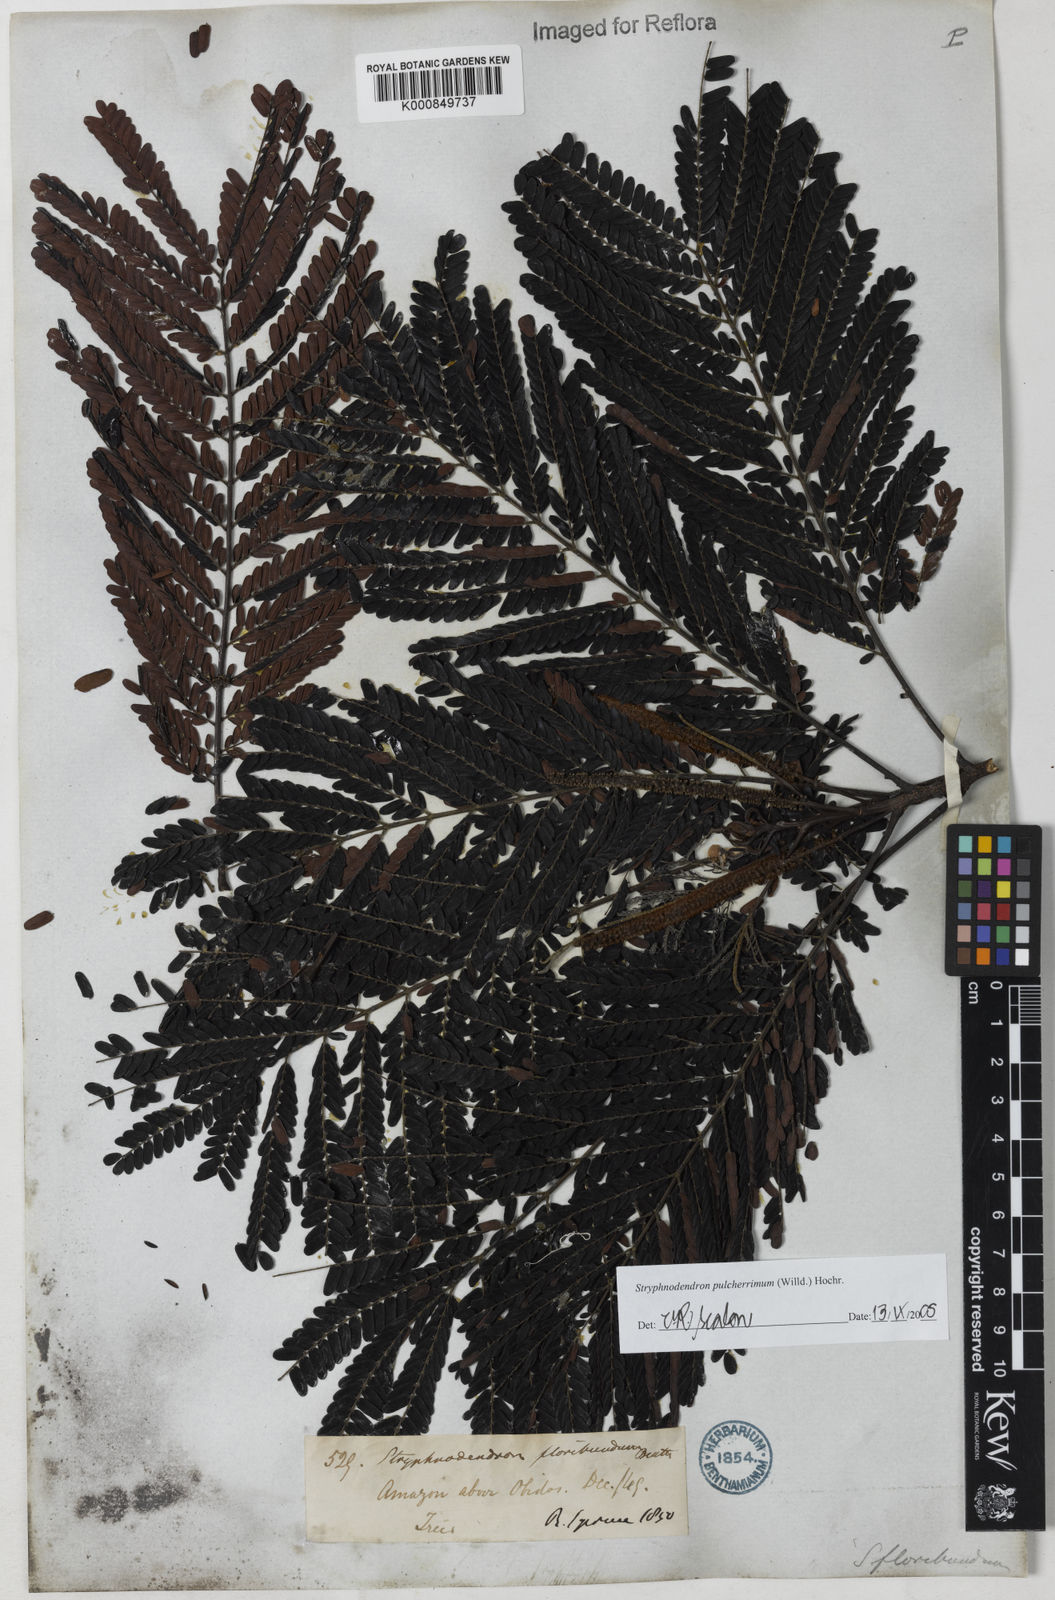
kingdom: Plantae
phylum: Tracheophyta
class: Magnoliopsida
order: Fabales
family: Fabaceae
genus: Stryphnodendron
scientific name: Stryphnodendron pulcherrimum
